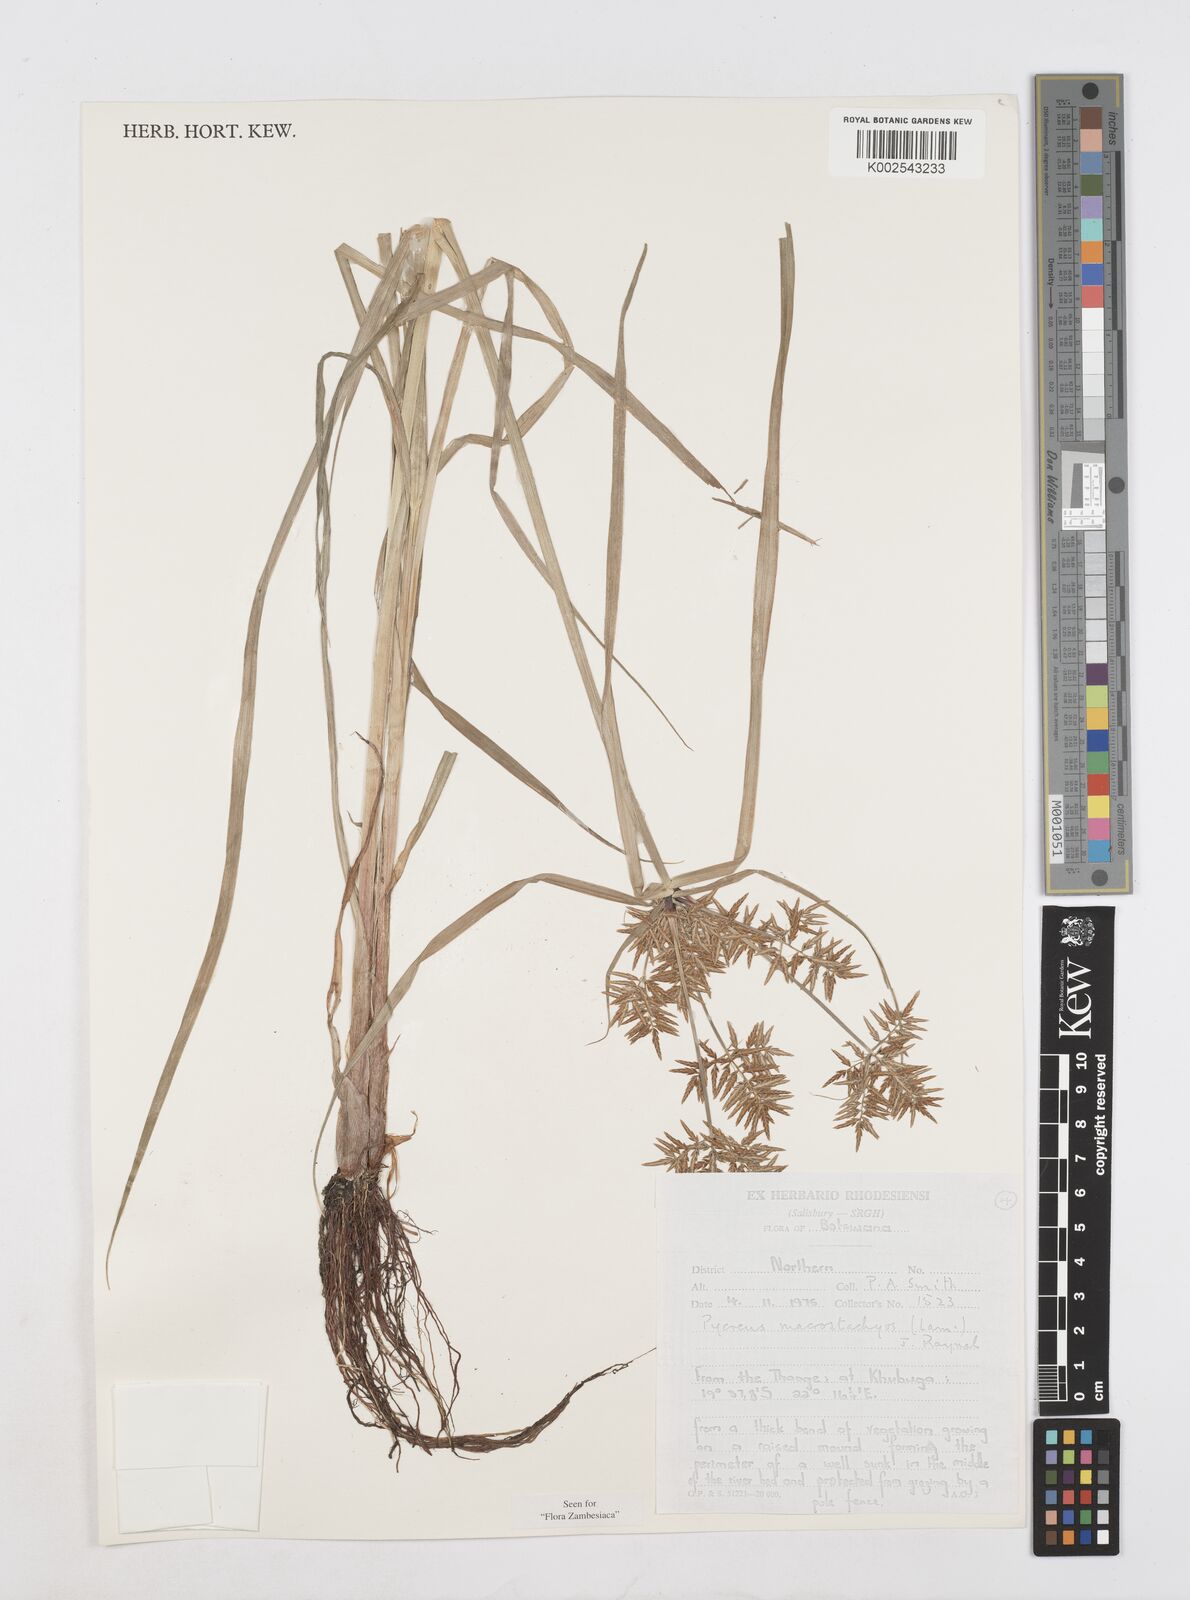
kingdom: Plantae
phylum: Tracheophyta
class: Liliopsida
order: Poales
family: Cyperaceae
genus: Cyperus
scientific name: Cyperus macrostachyos
